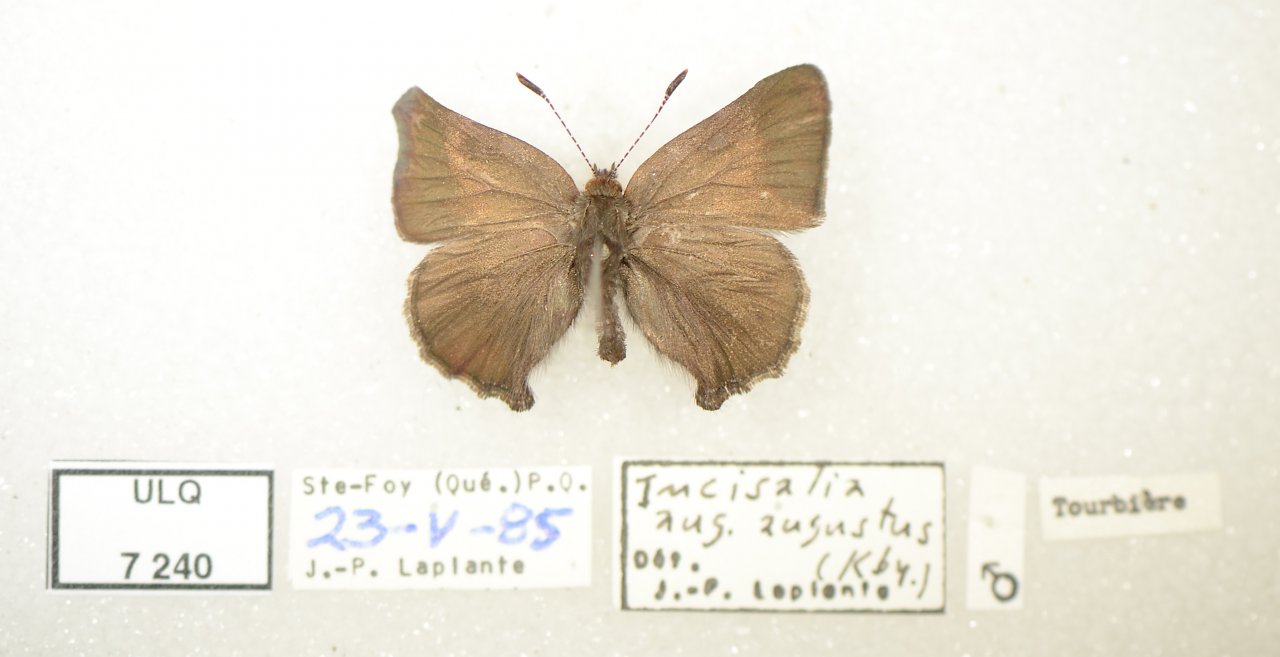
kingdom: Animalia
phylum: Arthropoda
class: Insecta
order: Lepidoptera
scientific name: Lepidoptera
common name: Butterflies
